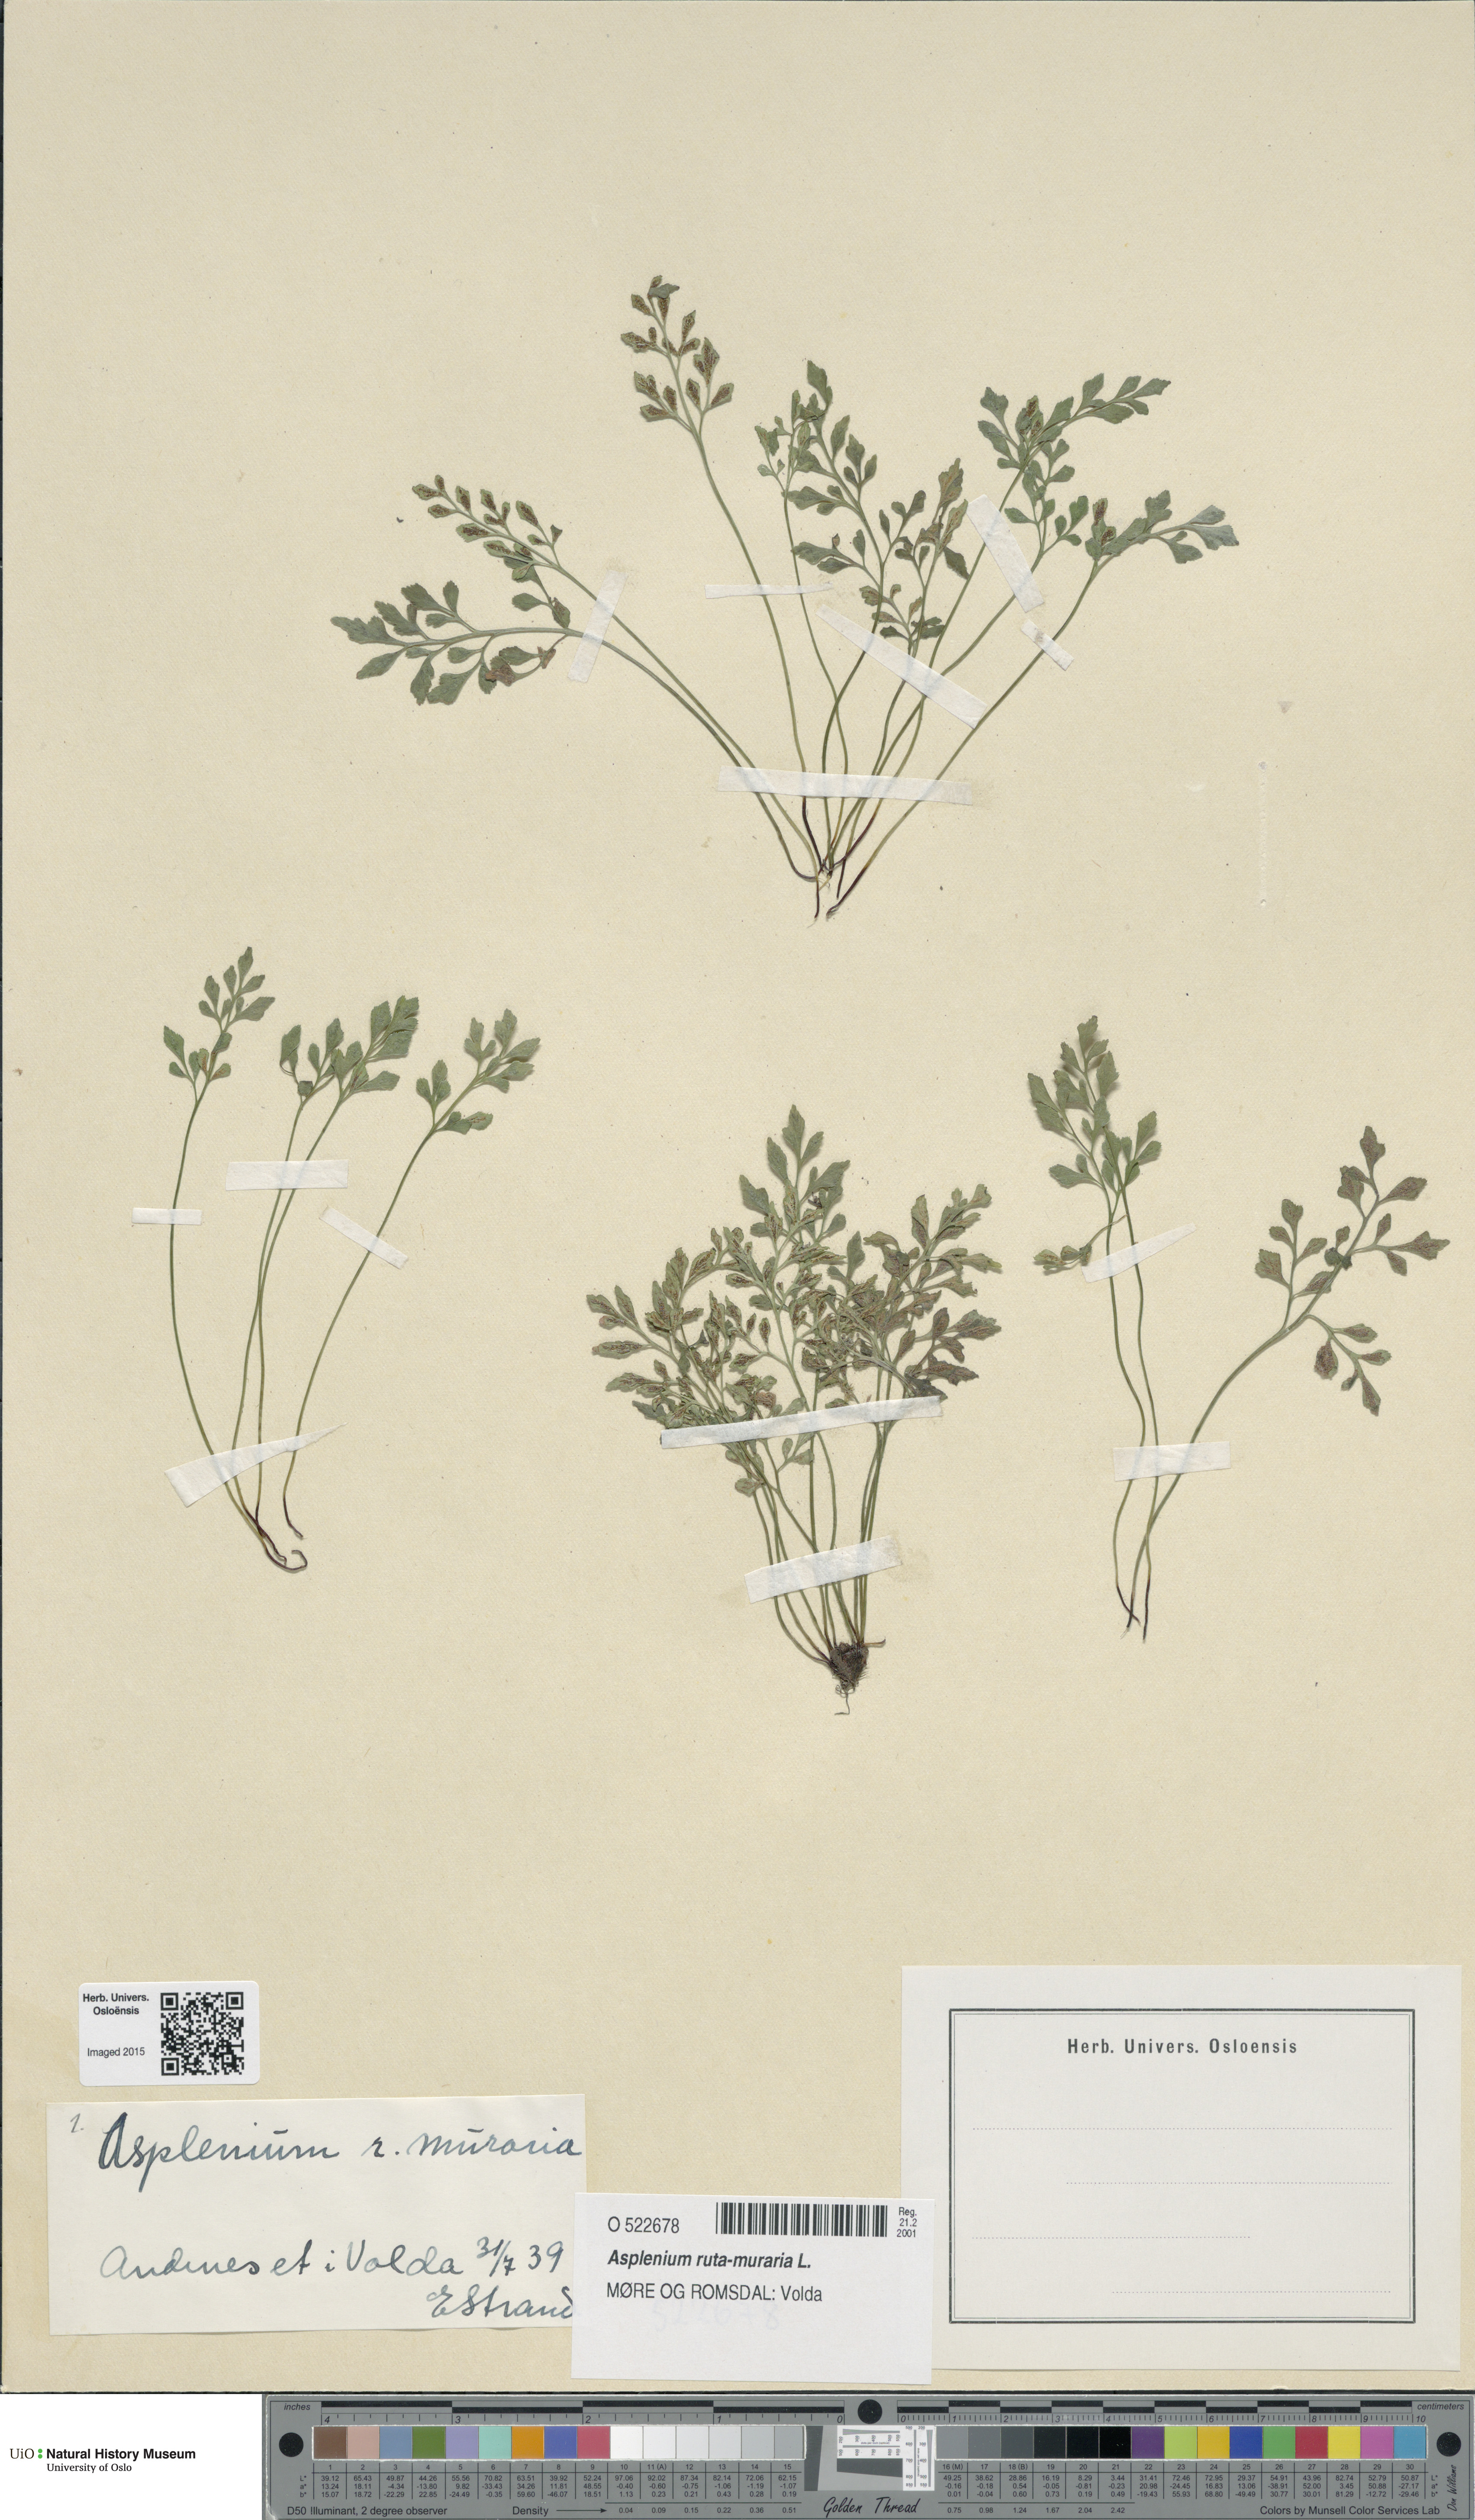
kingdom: Plantae
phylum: Tracheophyta
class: Polypodiopsida
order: Polypodiales
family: Aspleniaceae
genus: Asplenium
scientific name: Asplenium ruta-muraria
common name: Wall-rue
